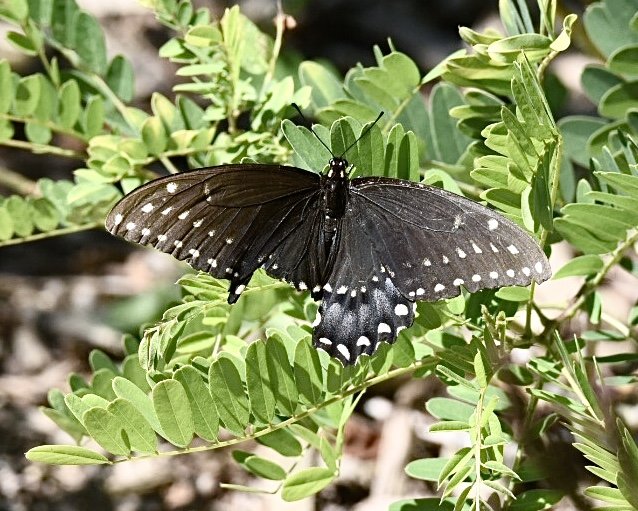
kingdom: Animalia
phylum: Arthropoda
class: Insecta
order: Lepidoptera
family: Papilionidae
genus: Papilio
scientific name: Papilio polyxenes
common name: Black Swallowtail
